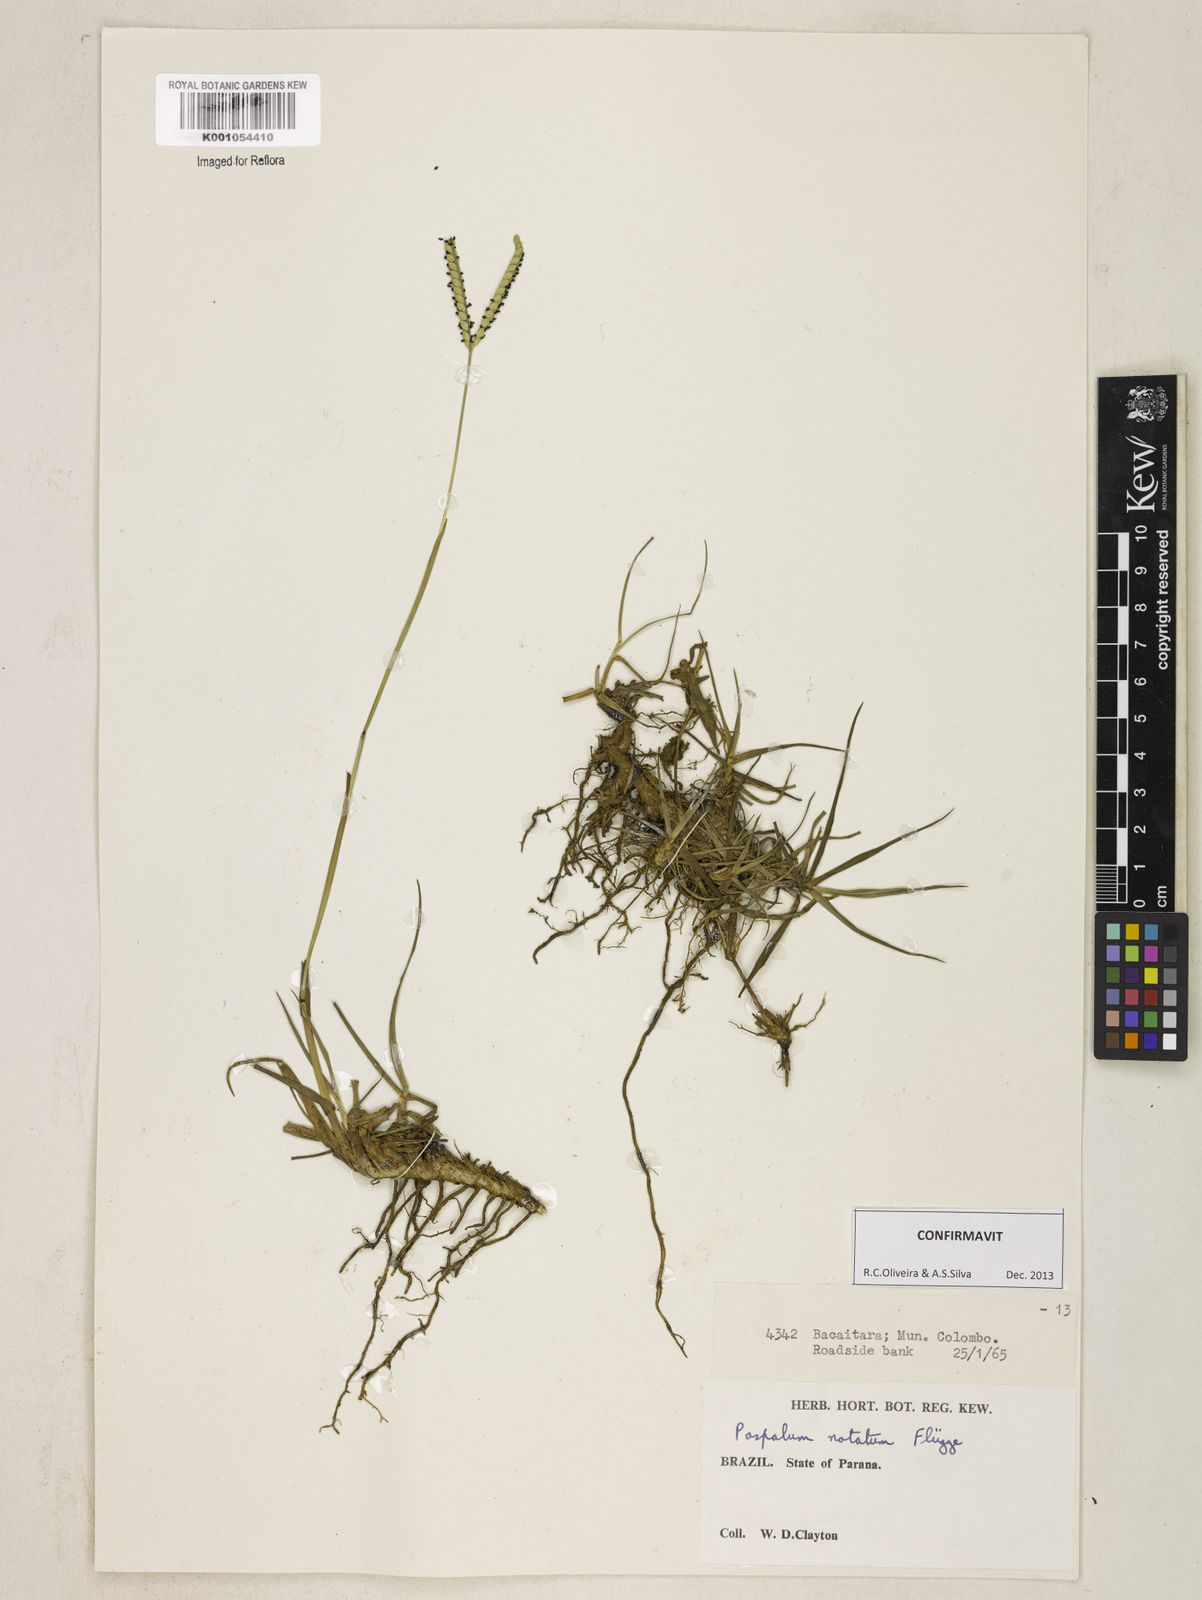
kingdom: Plantae
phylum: Tracheophyta
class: Liliopsida
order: Poales
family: Poaceae
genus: Paspalum
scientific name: Paspalum
